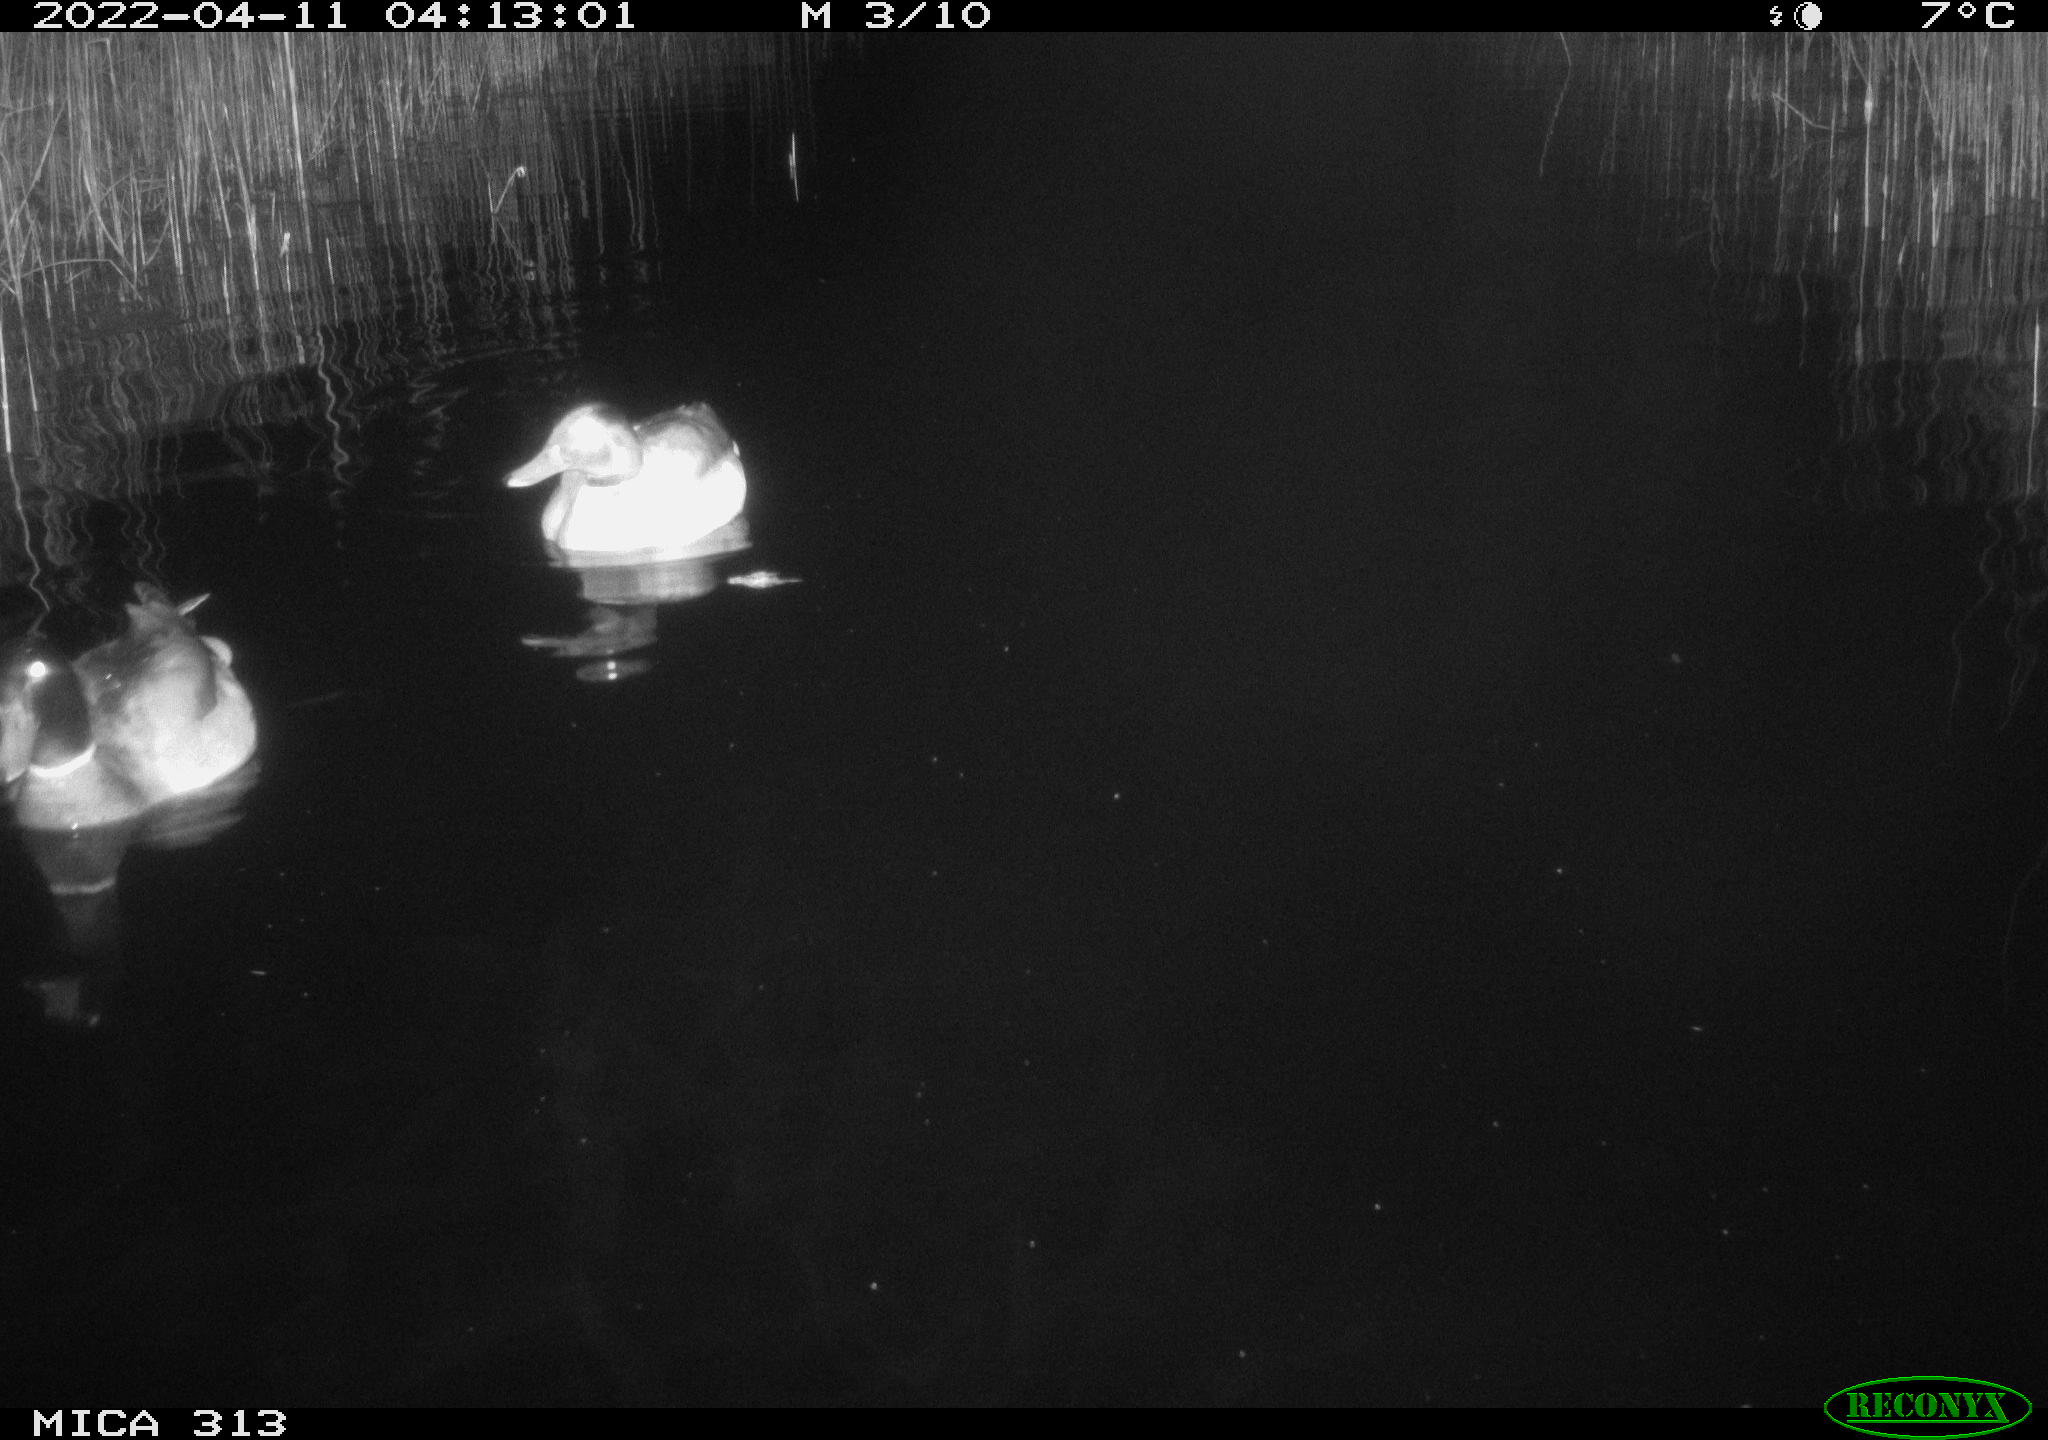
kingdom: Animalia
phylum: Chordata
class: Aves
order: Anseriformes
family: Anatidae
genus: Anas
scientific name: Anas platyrhynchos
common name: Mallard
